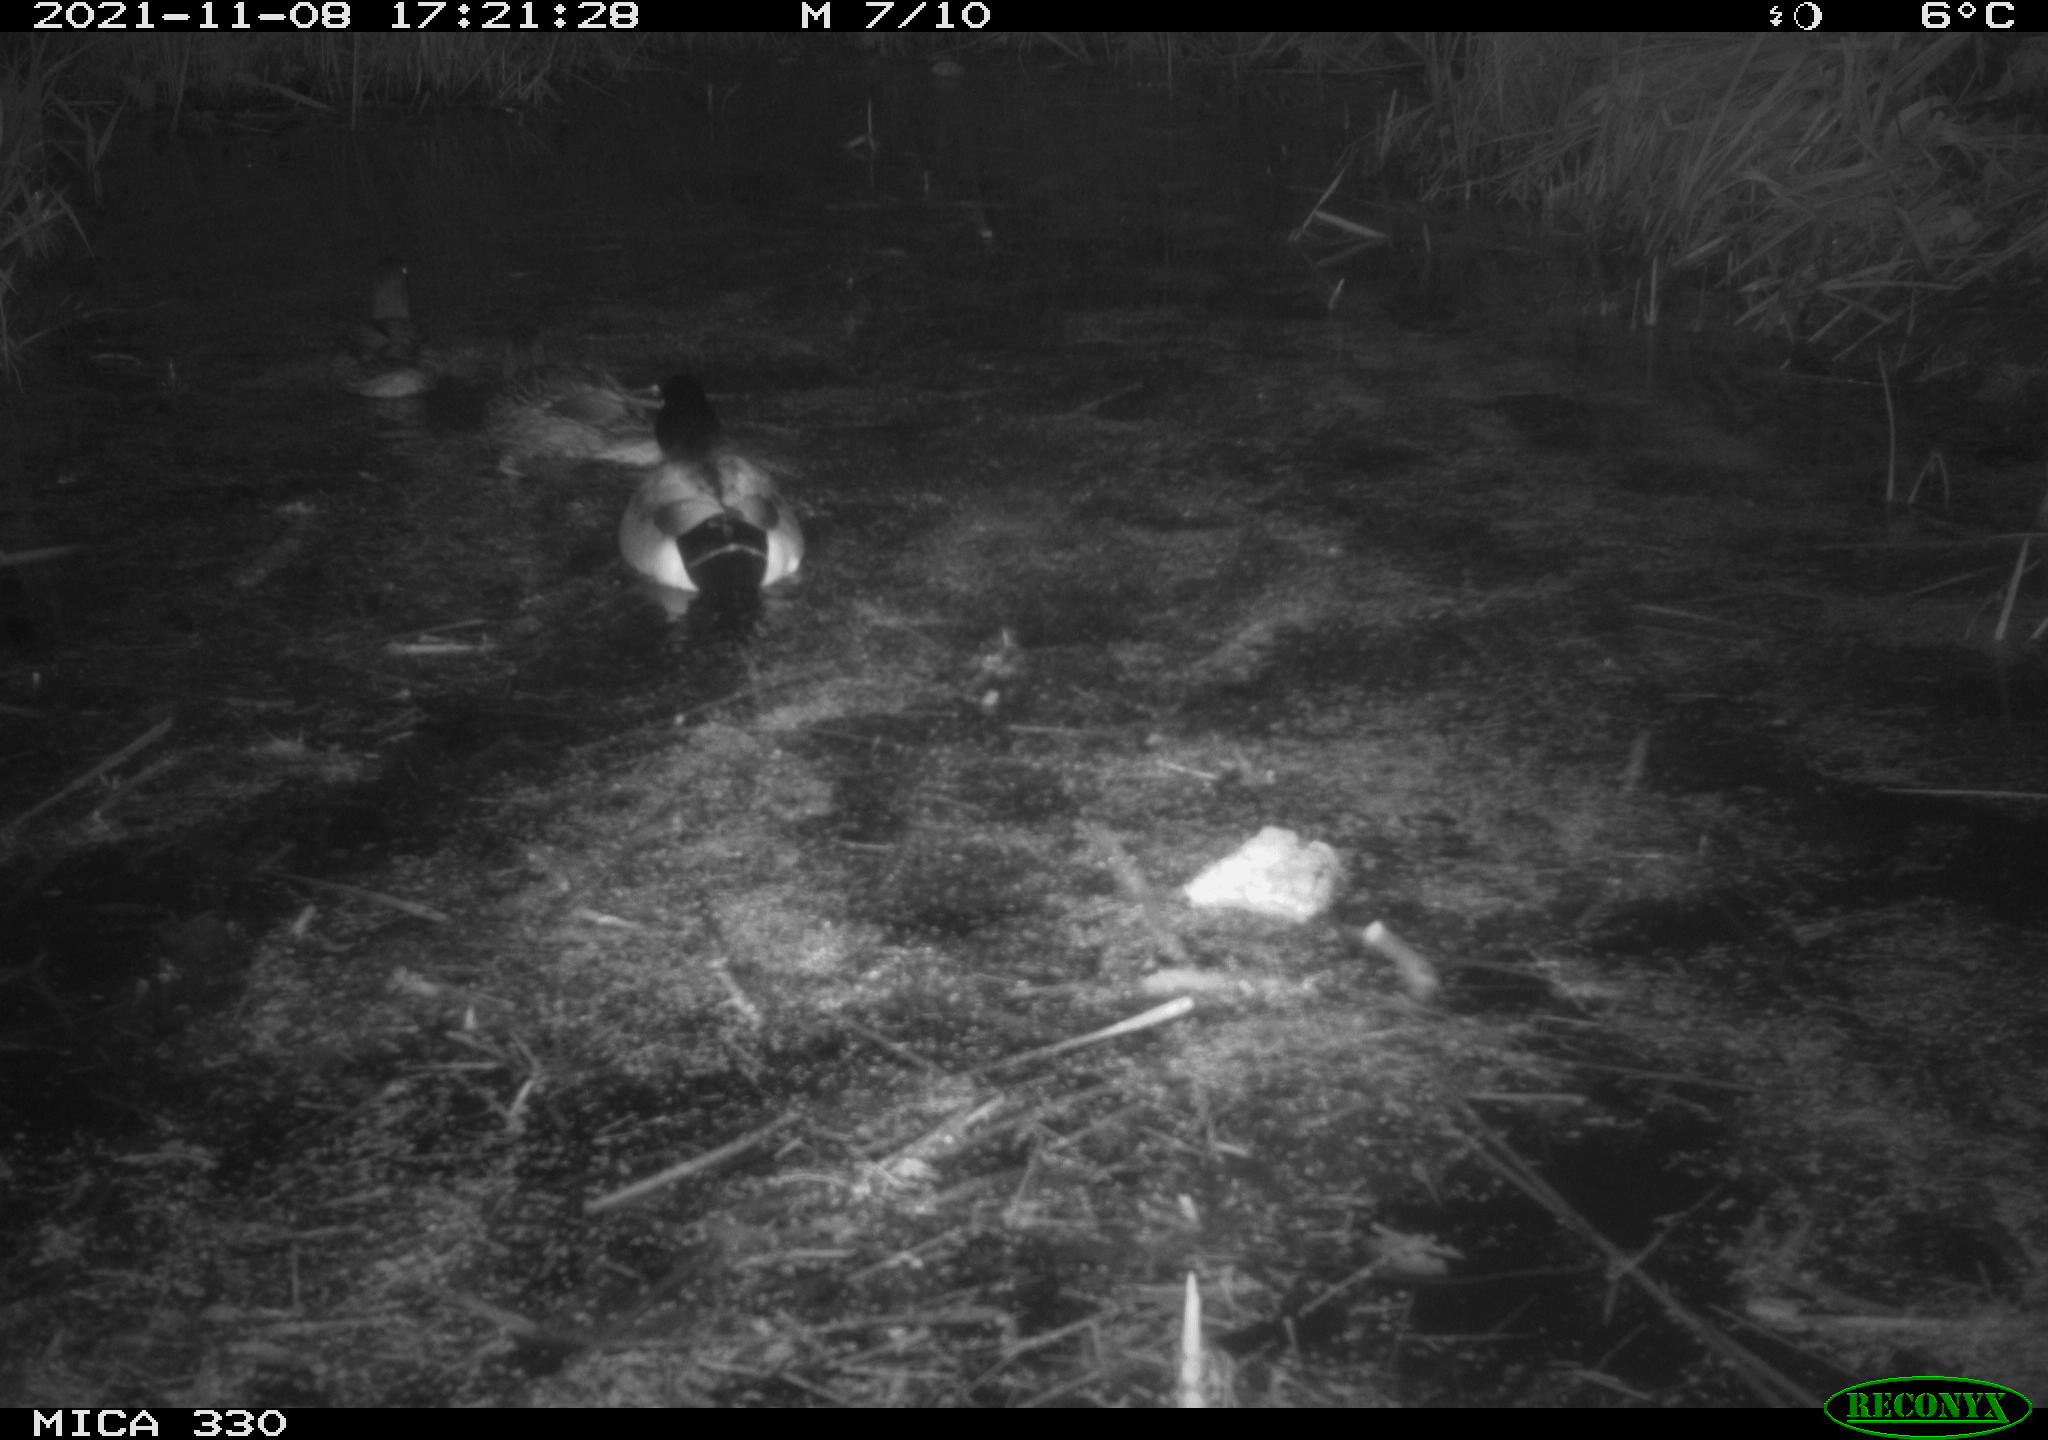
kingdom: Animalia
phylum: Chordata
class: Aves
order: Anseriformes
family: Anatidae
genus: Anas
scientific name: Anas platyrhynchos
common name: Mallard
